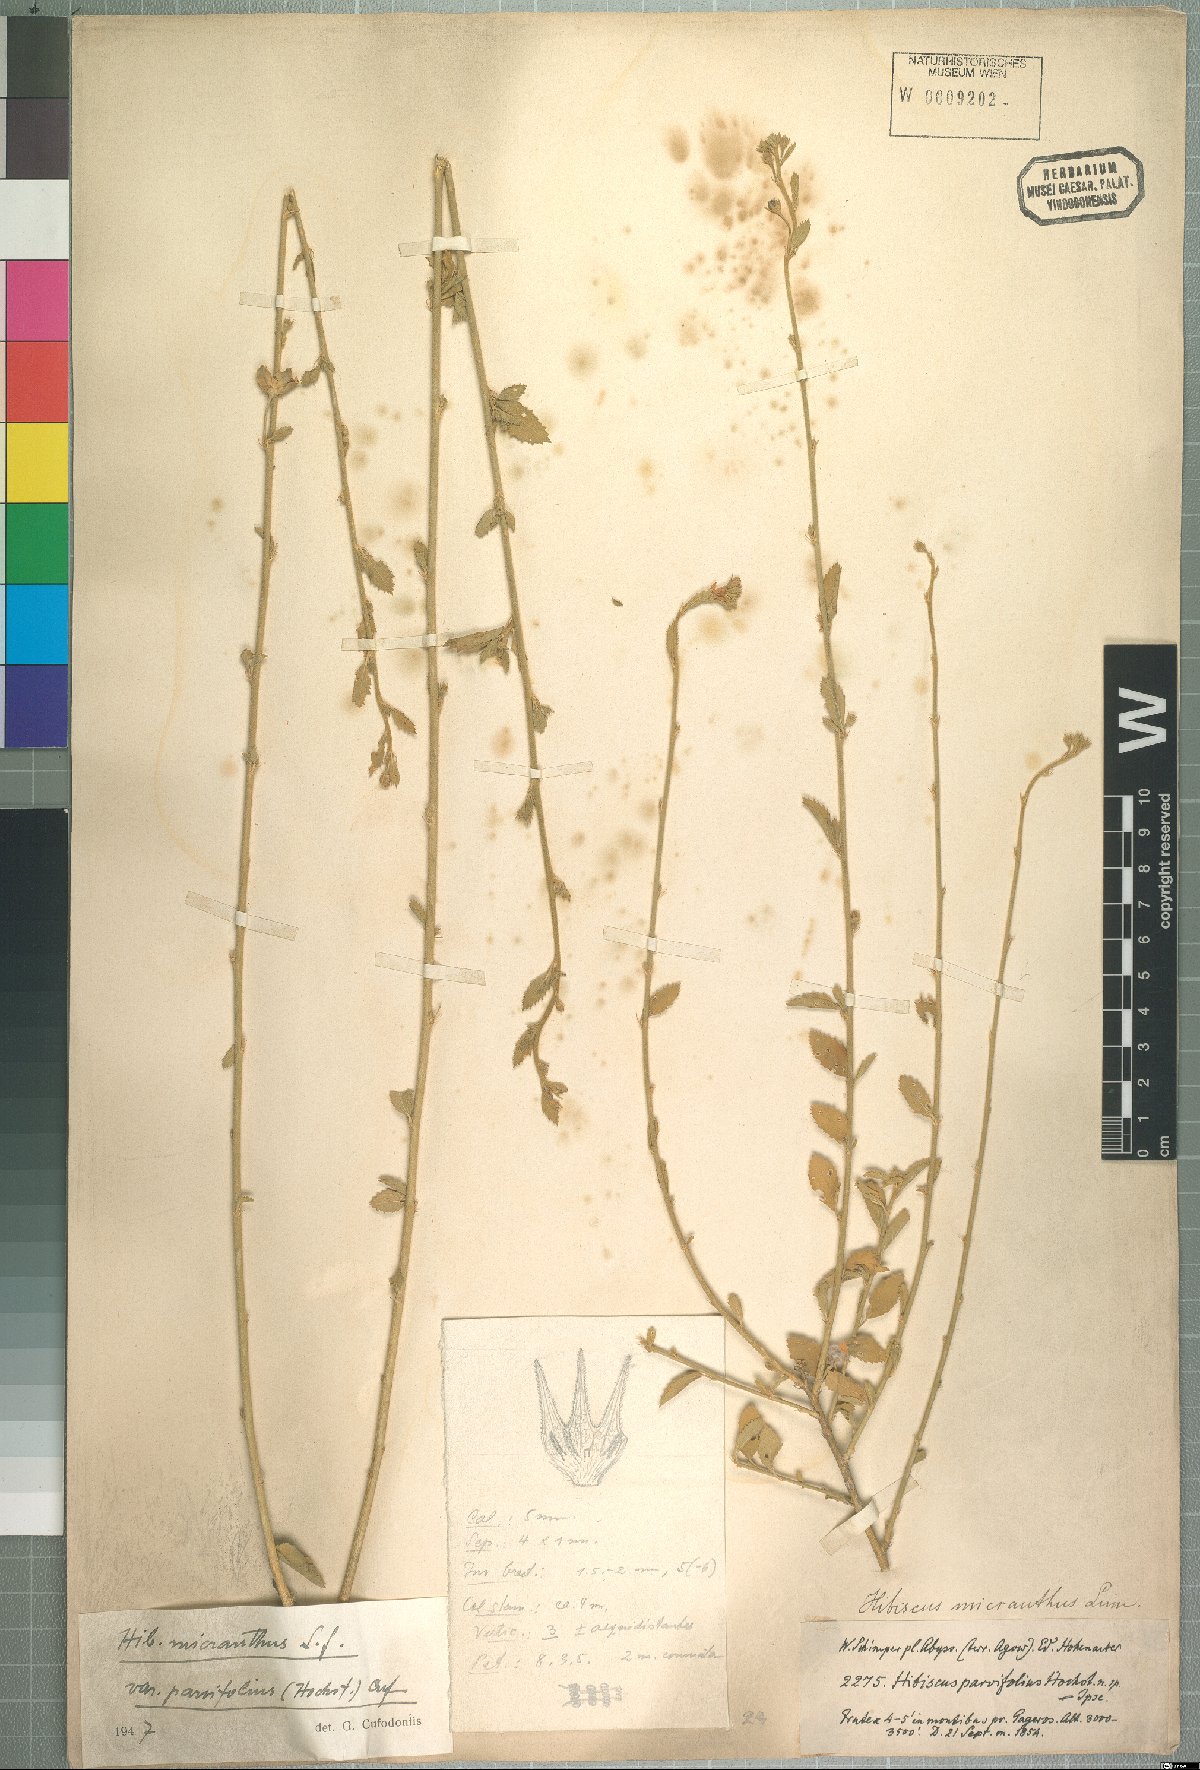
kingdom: Plantae
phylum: Tracheophyta
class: Magnoliopsida
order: Malvales
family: Malvaceae
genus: Hibiscus
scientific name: Hibiscus rhodanthus
